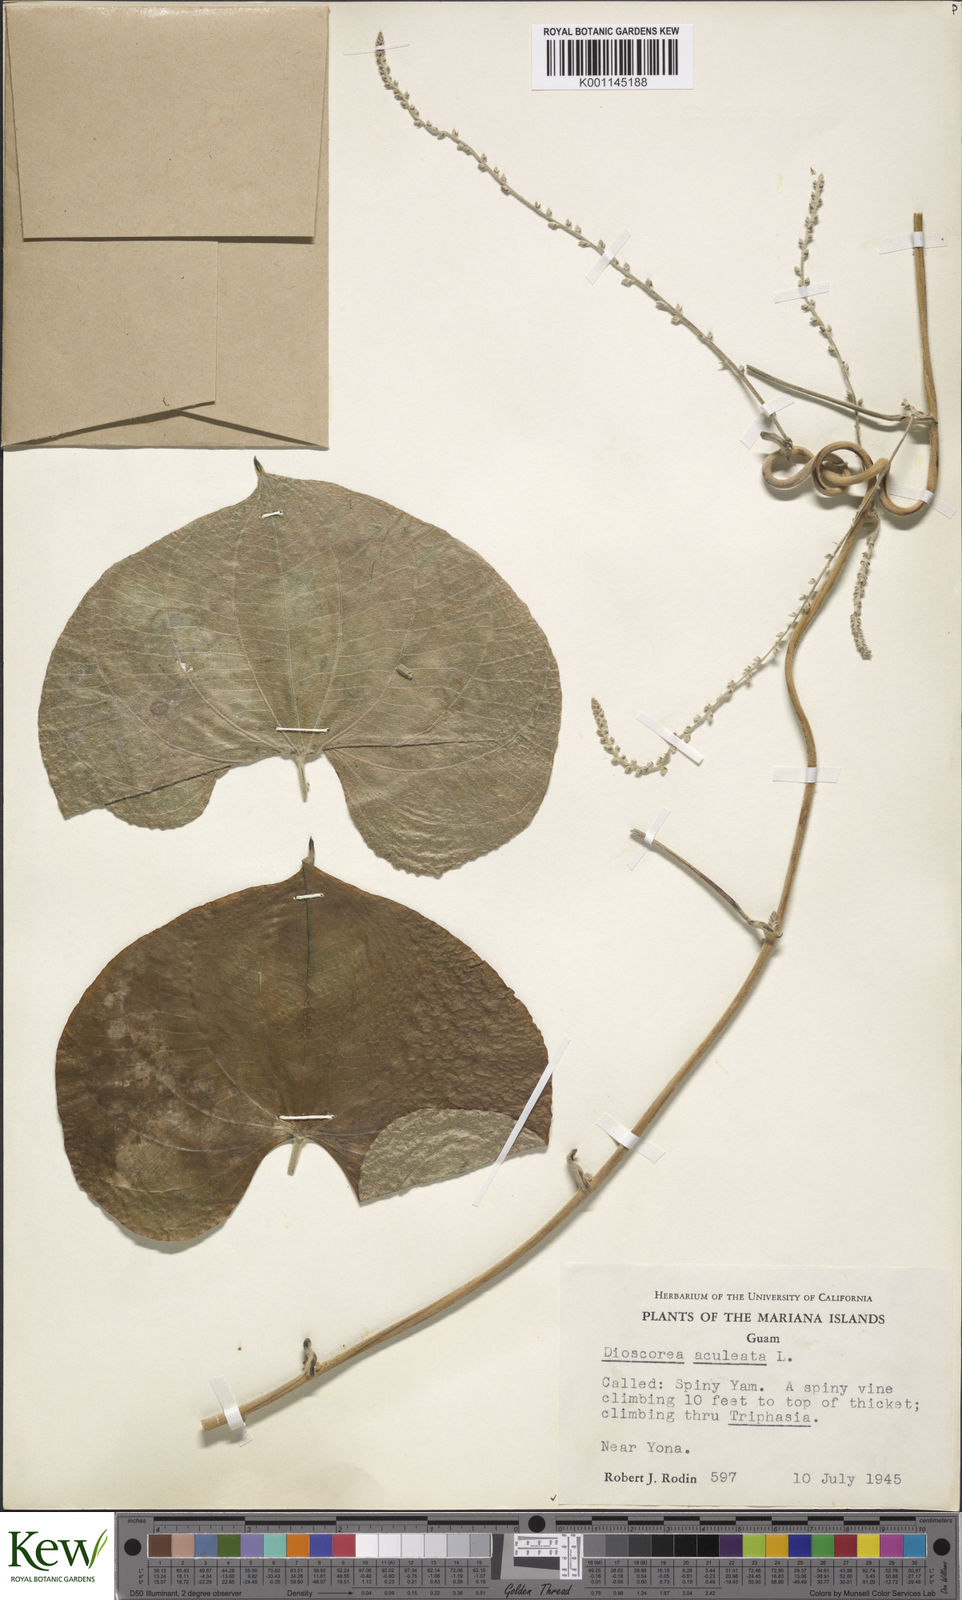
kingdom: Plantae
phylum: Tracheophyta
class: Liliopsida
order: Dioscoreales
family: Dioscoreaceae
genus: Dioscorea
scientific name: Dioscorea esculenta
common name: Chinese yam
